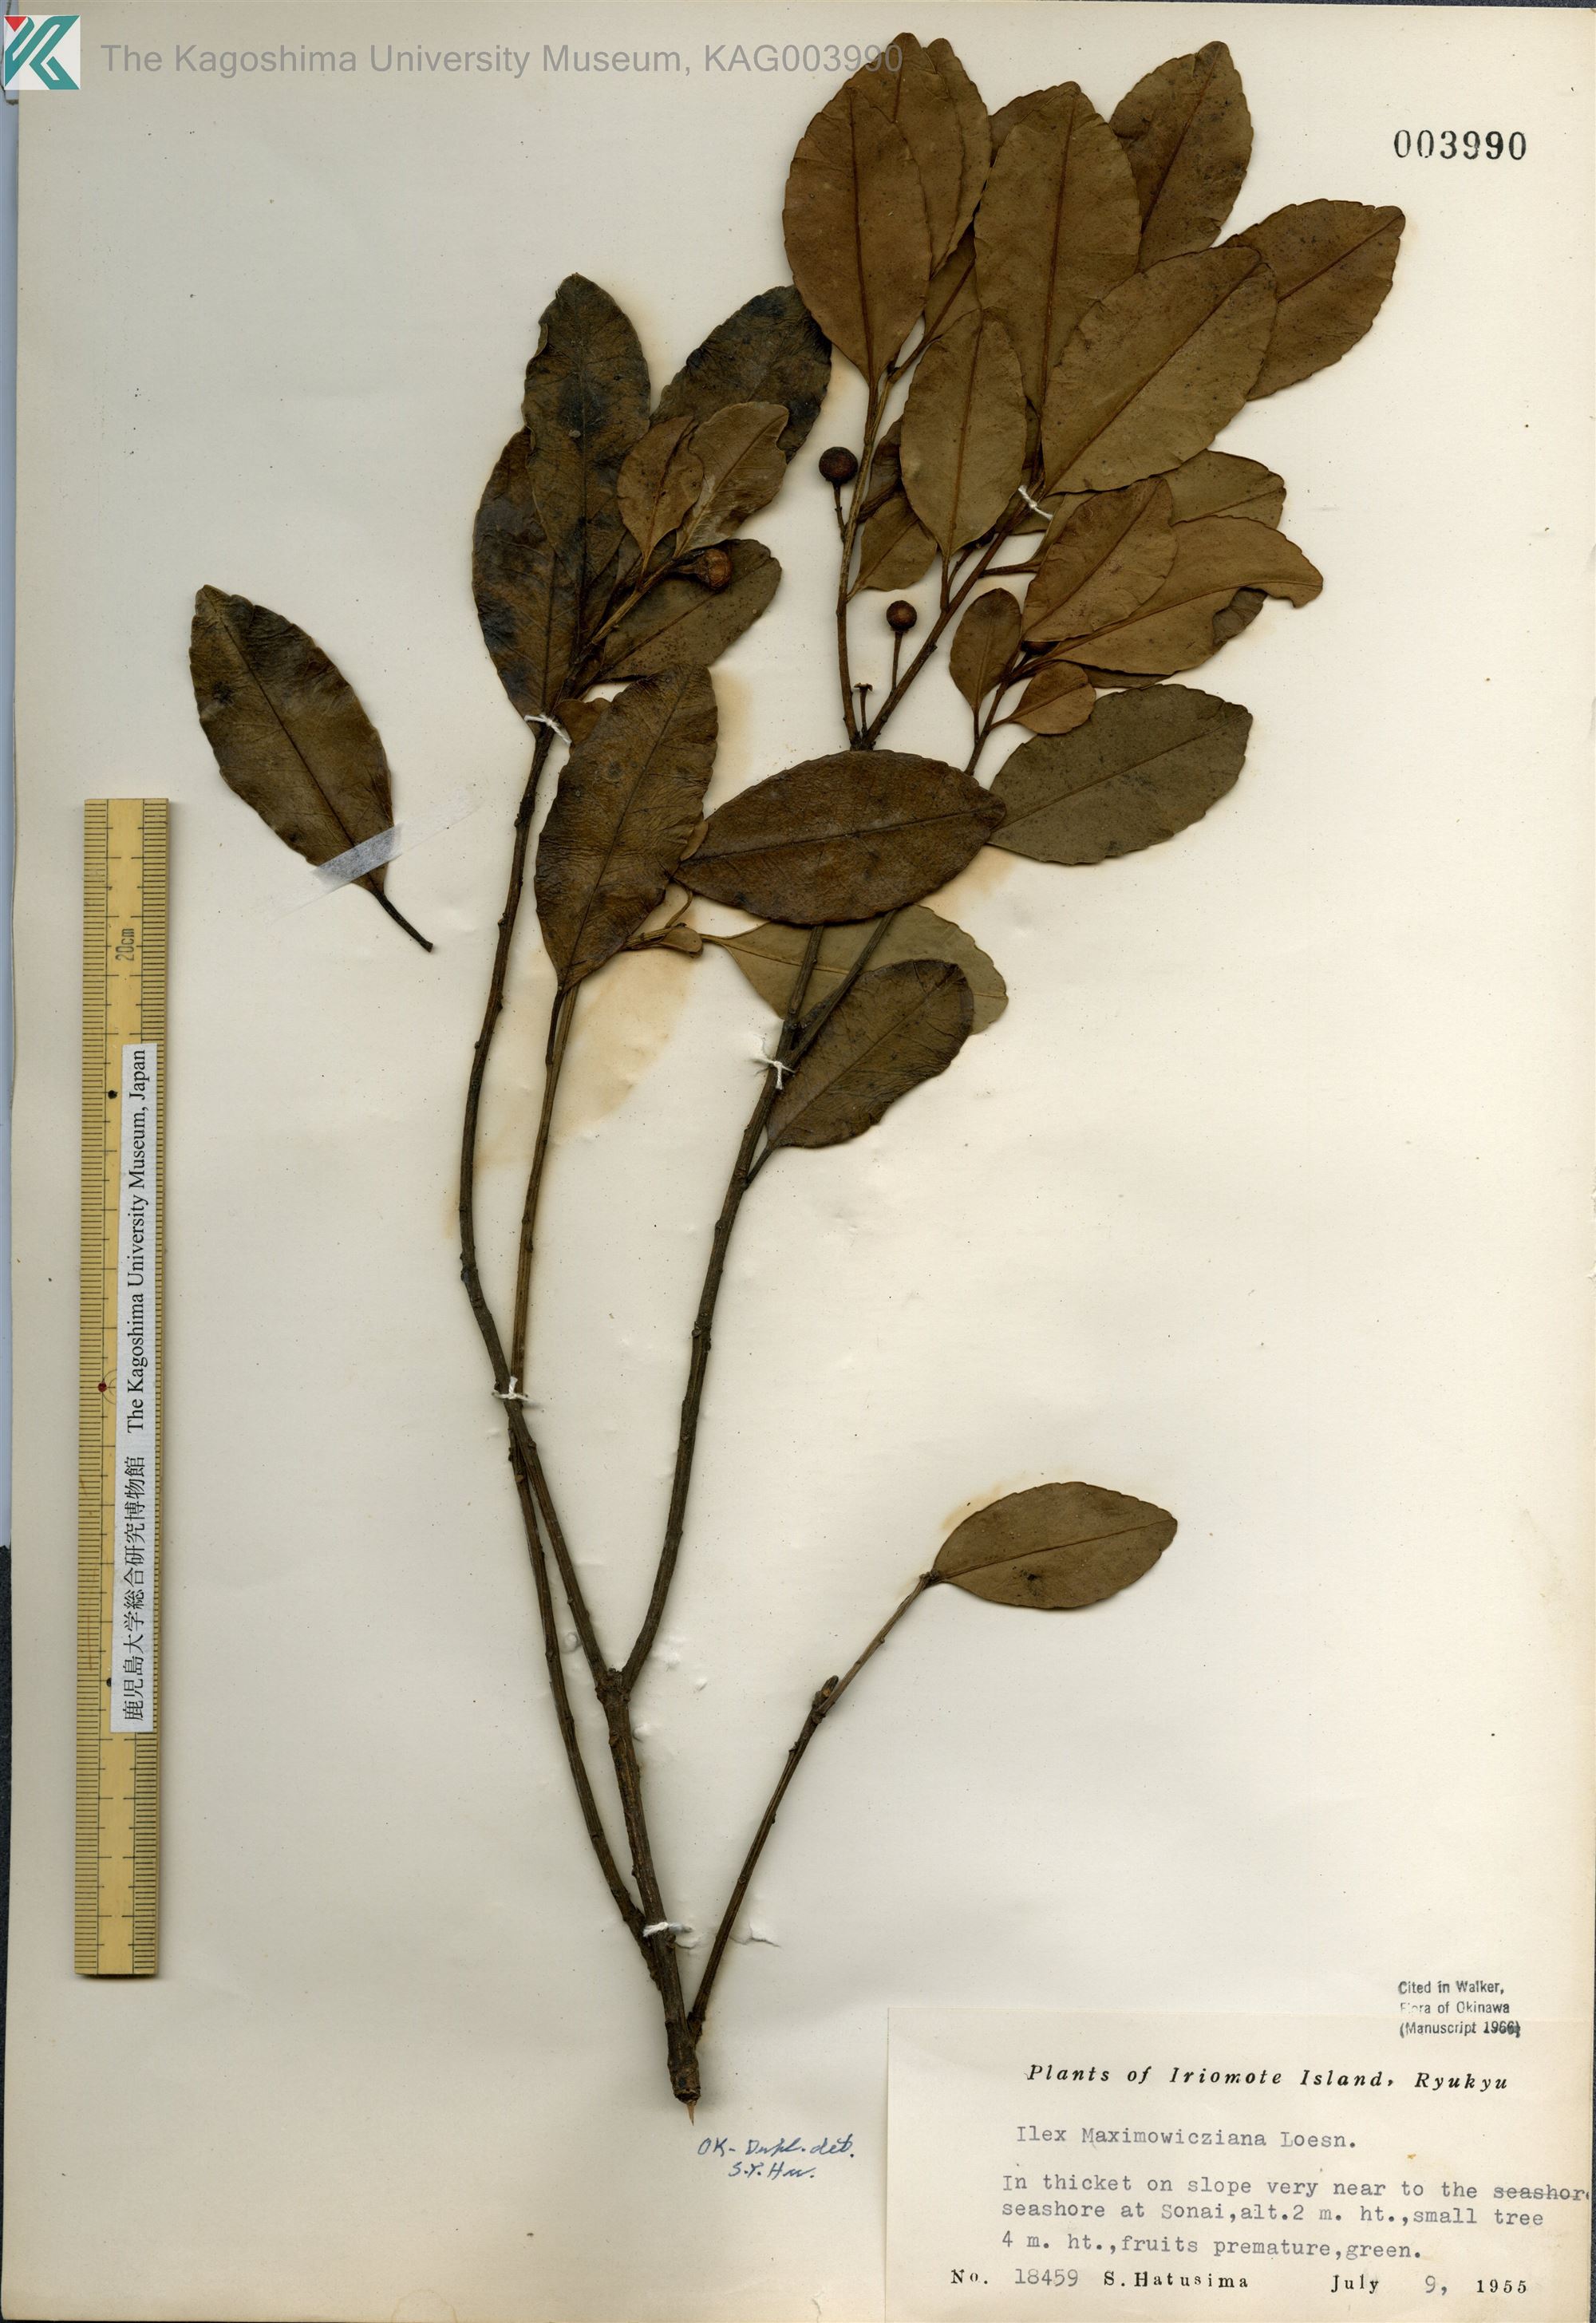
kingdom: Plantae
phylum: Tracheophyta
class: Magnoliopsida
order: Aquifoliales
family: Aquifoliaceae
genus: Ilex
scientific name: Ilex maximowicziana
